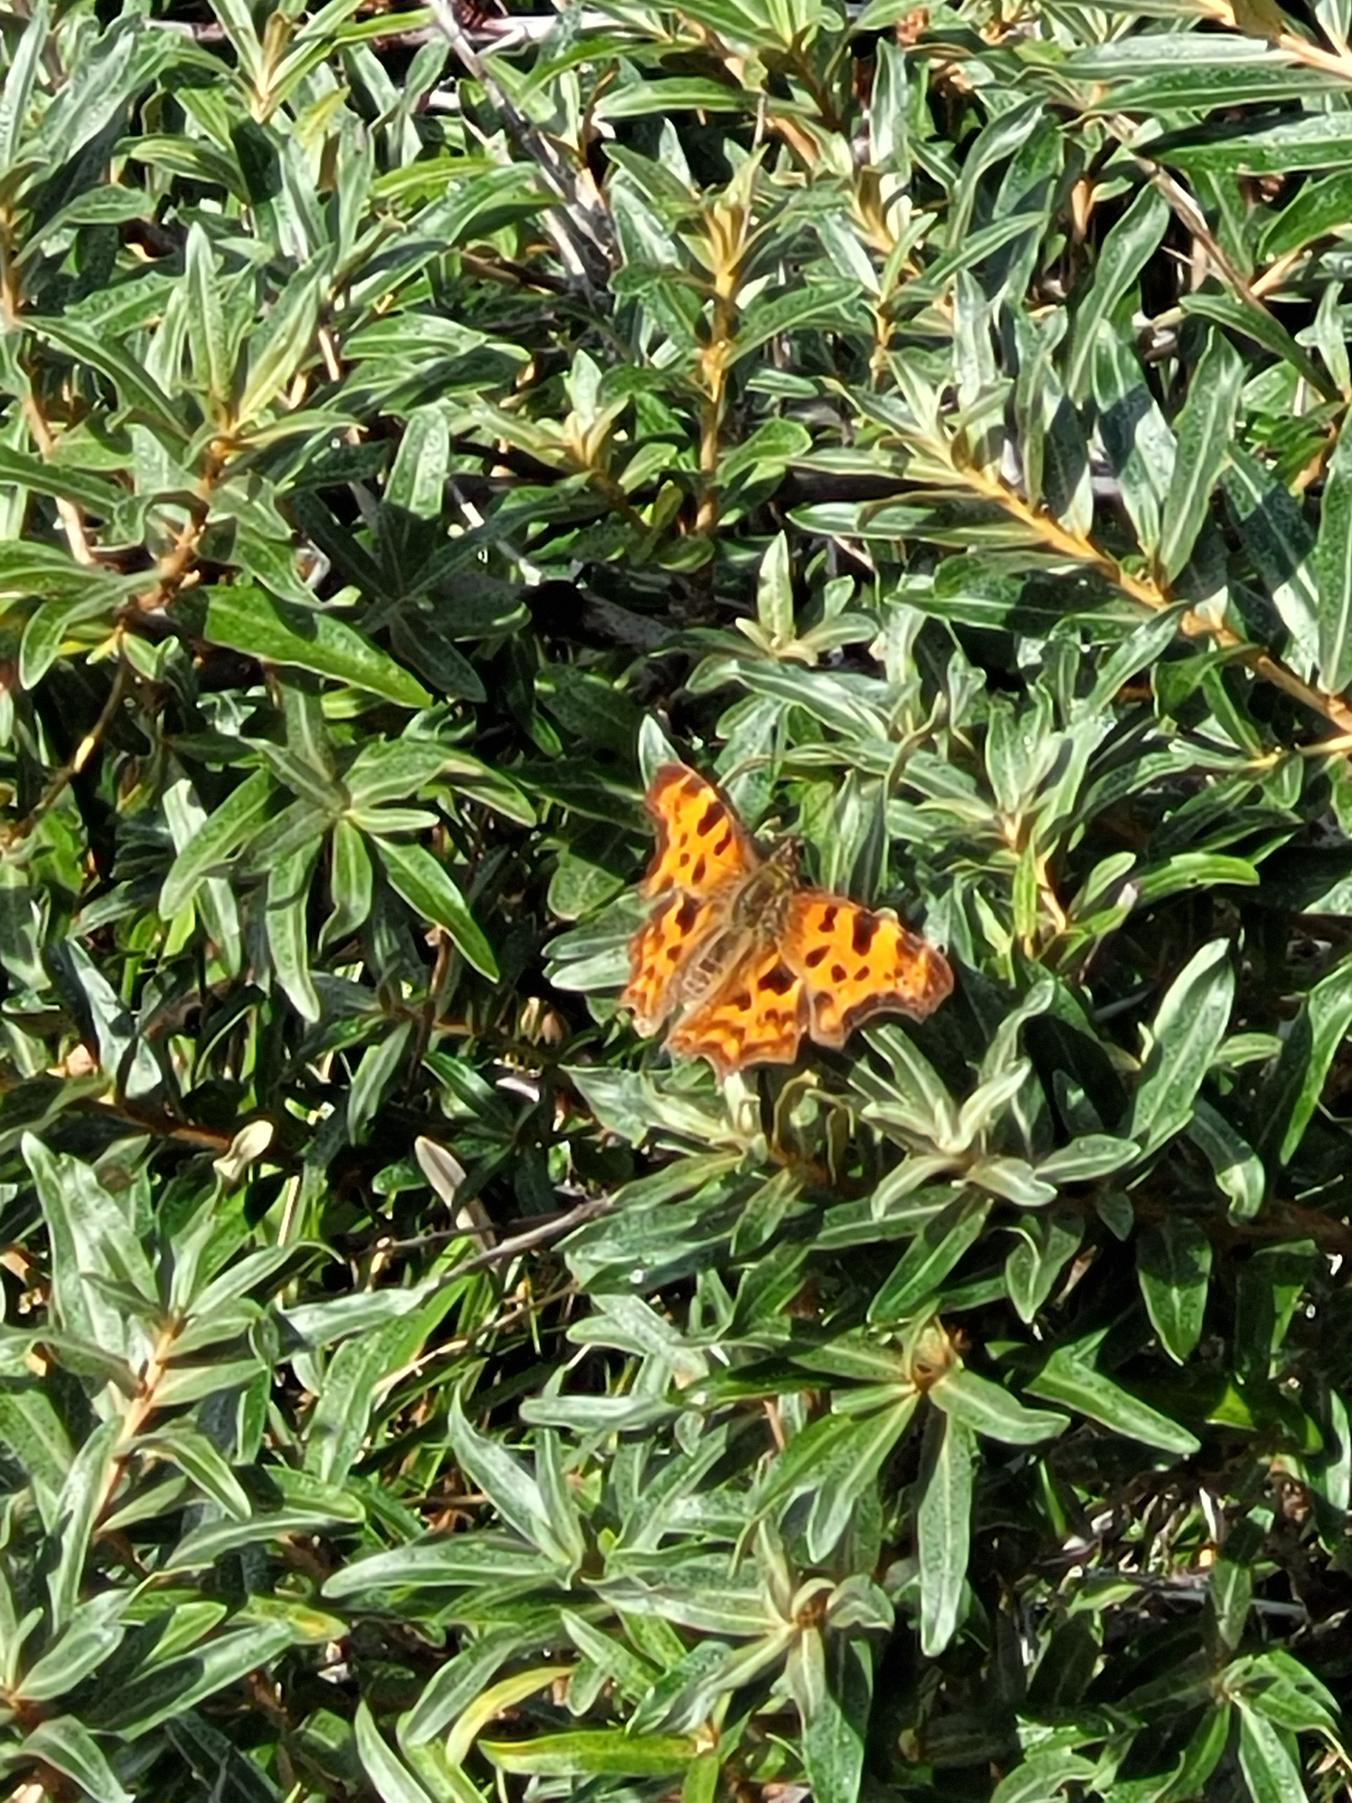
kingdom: Animalia
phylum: Arthropoda
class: Insecta
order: Lepidoptera
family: Nymphalidae
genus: Polygonia
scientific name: Polygonia c-album
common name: Det hvide C
